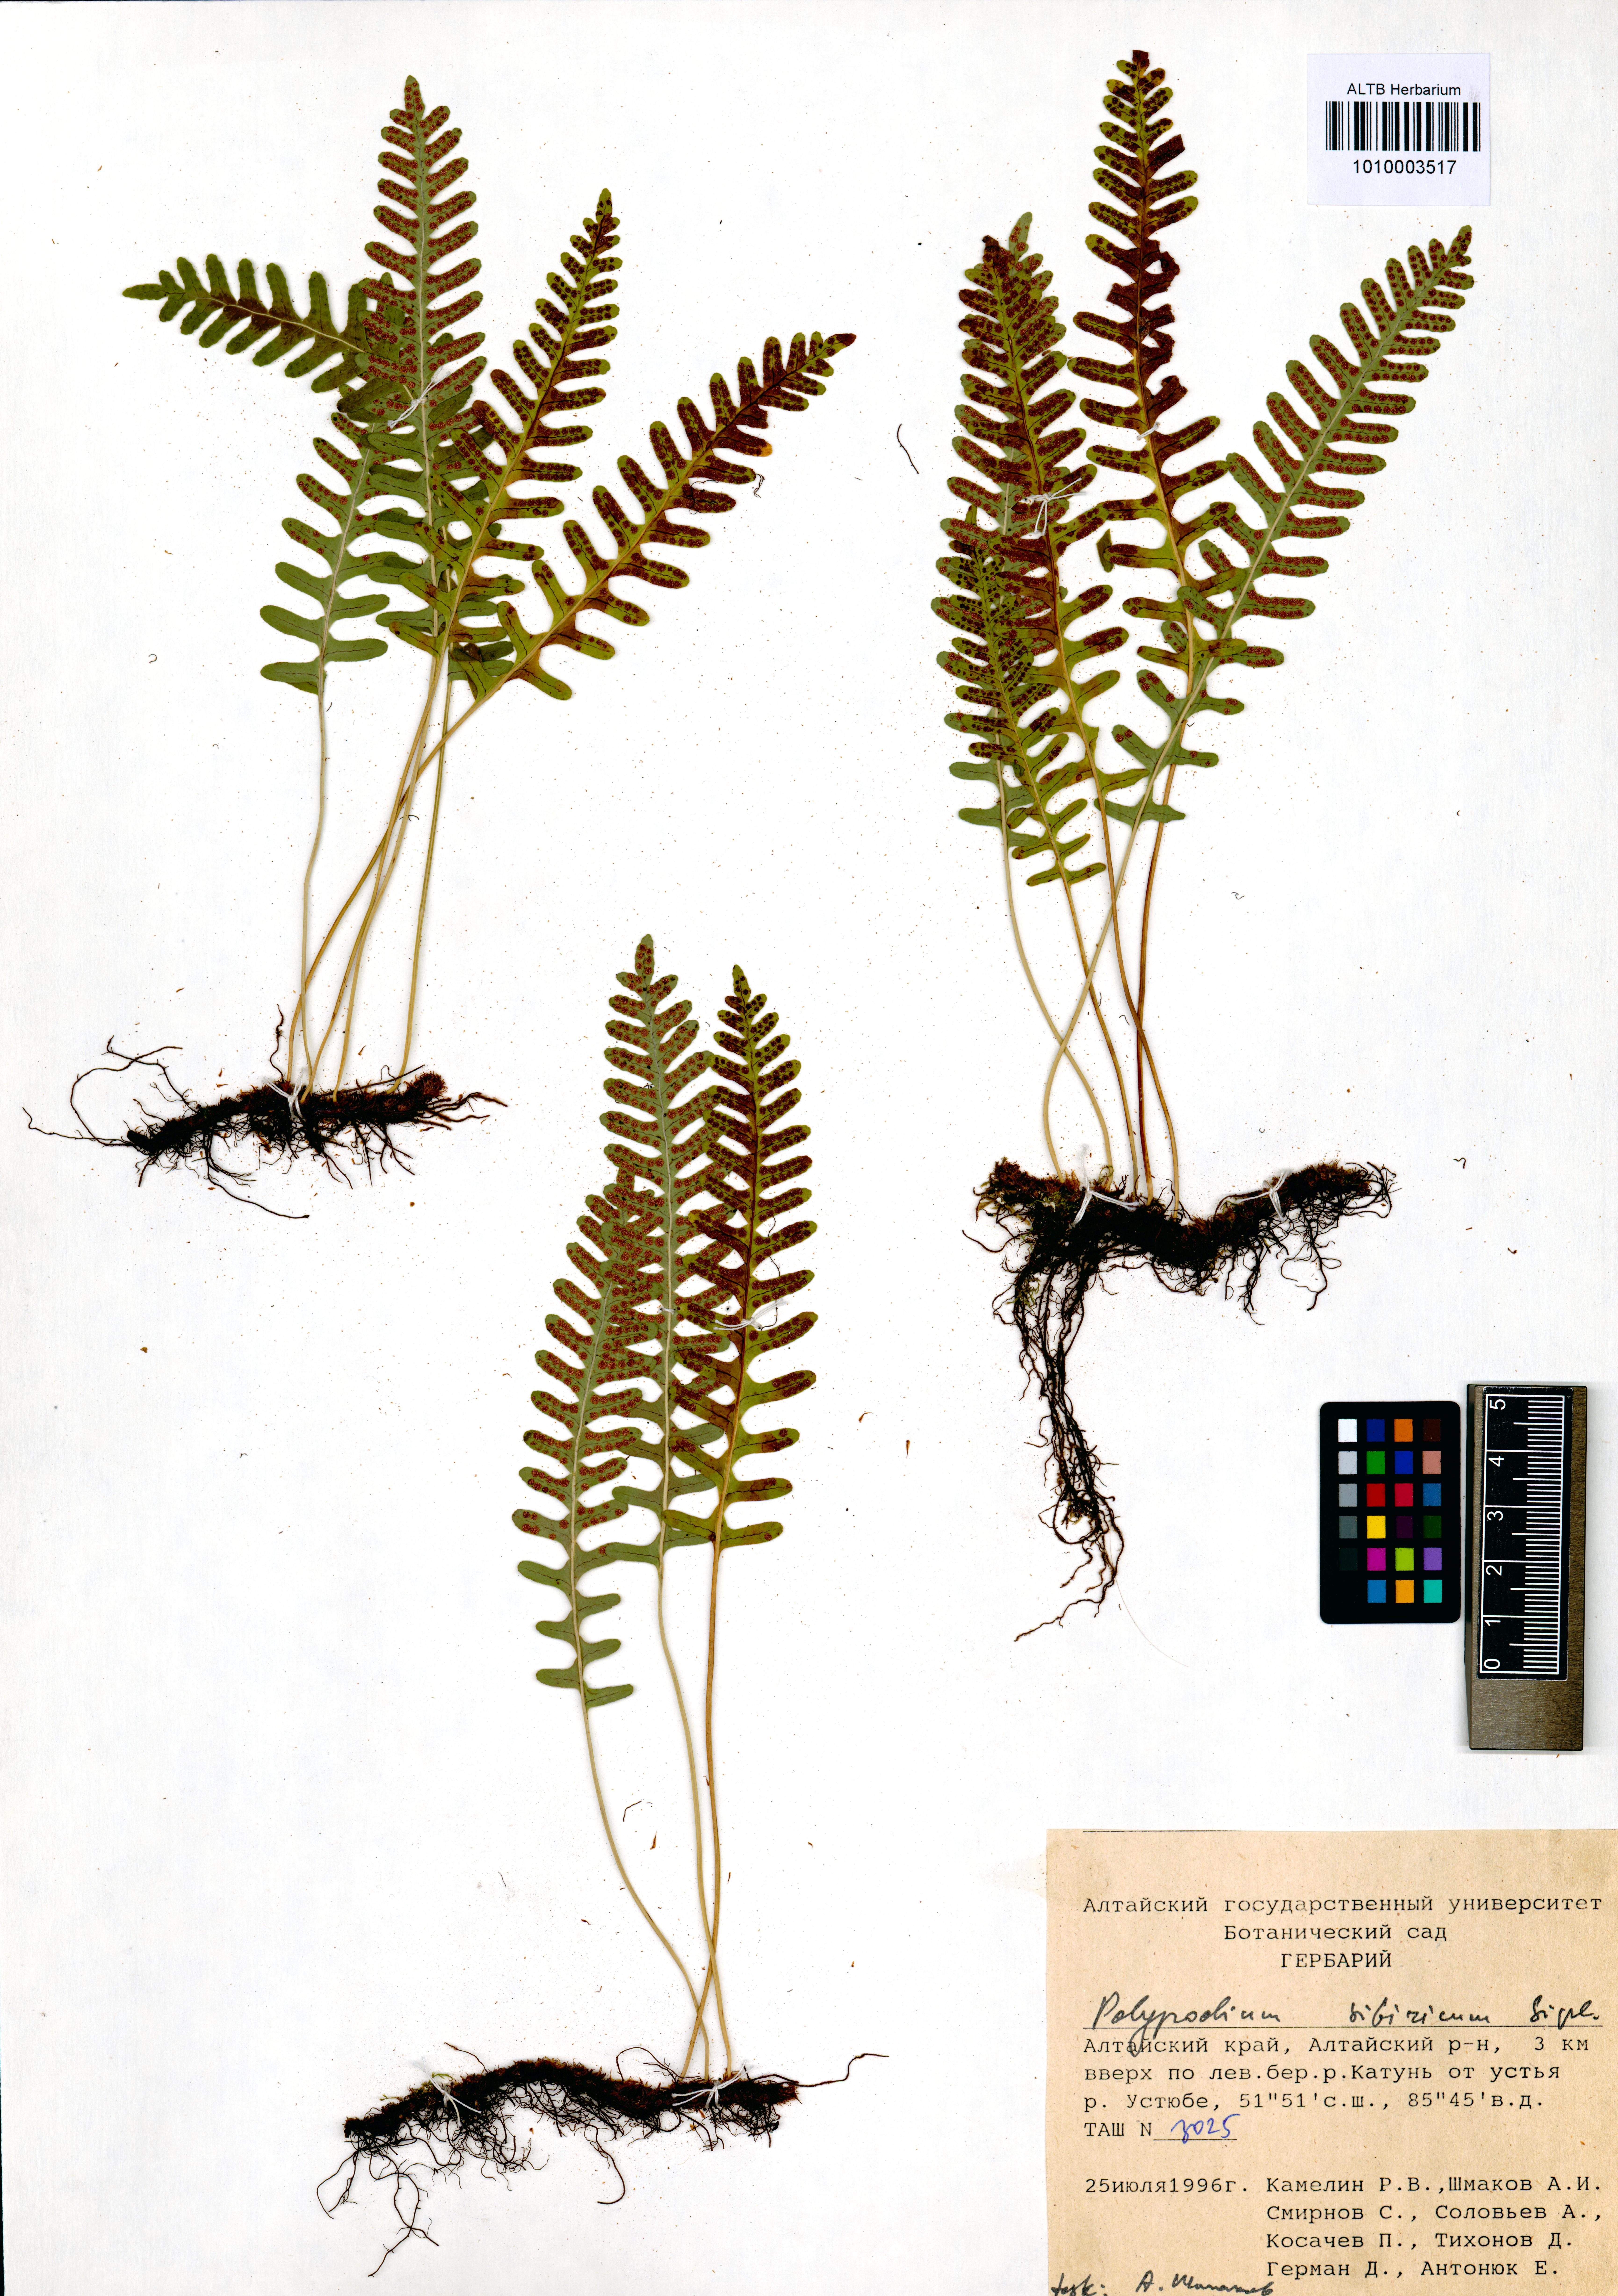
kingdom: Plantae
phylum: Tracheophyta
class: Polypodiopsida
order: Polypodiales
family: Polypodiaceae
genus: Polypodium
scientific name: Polypodium sibiricum
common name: Siberian polypody
